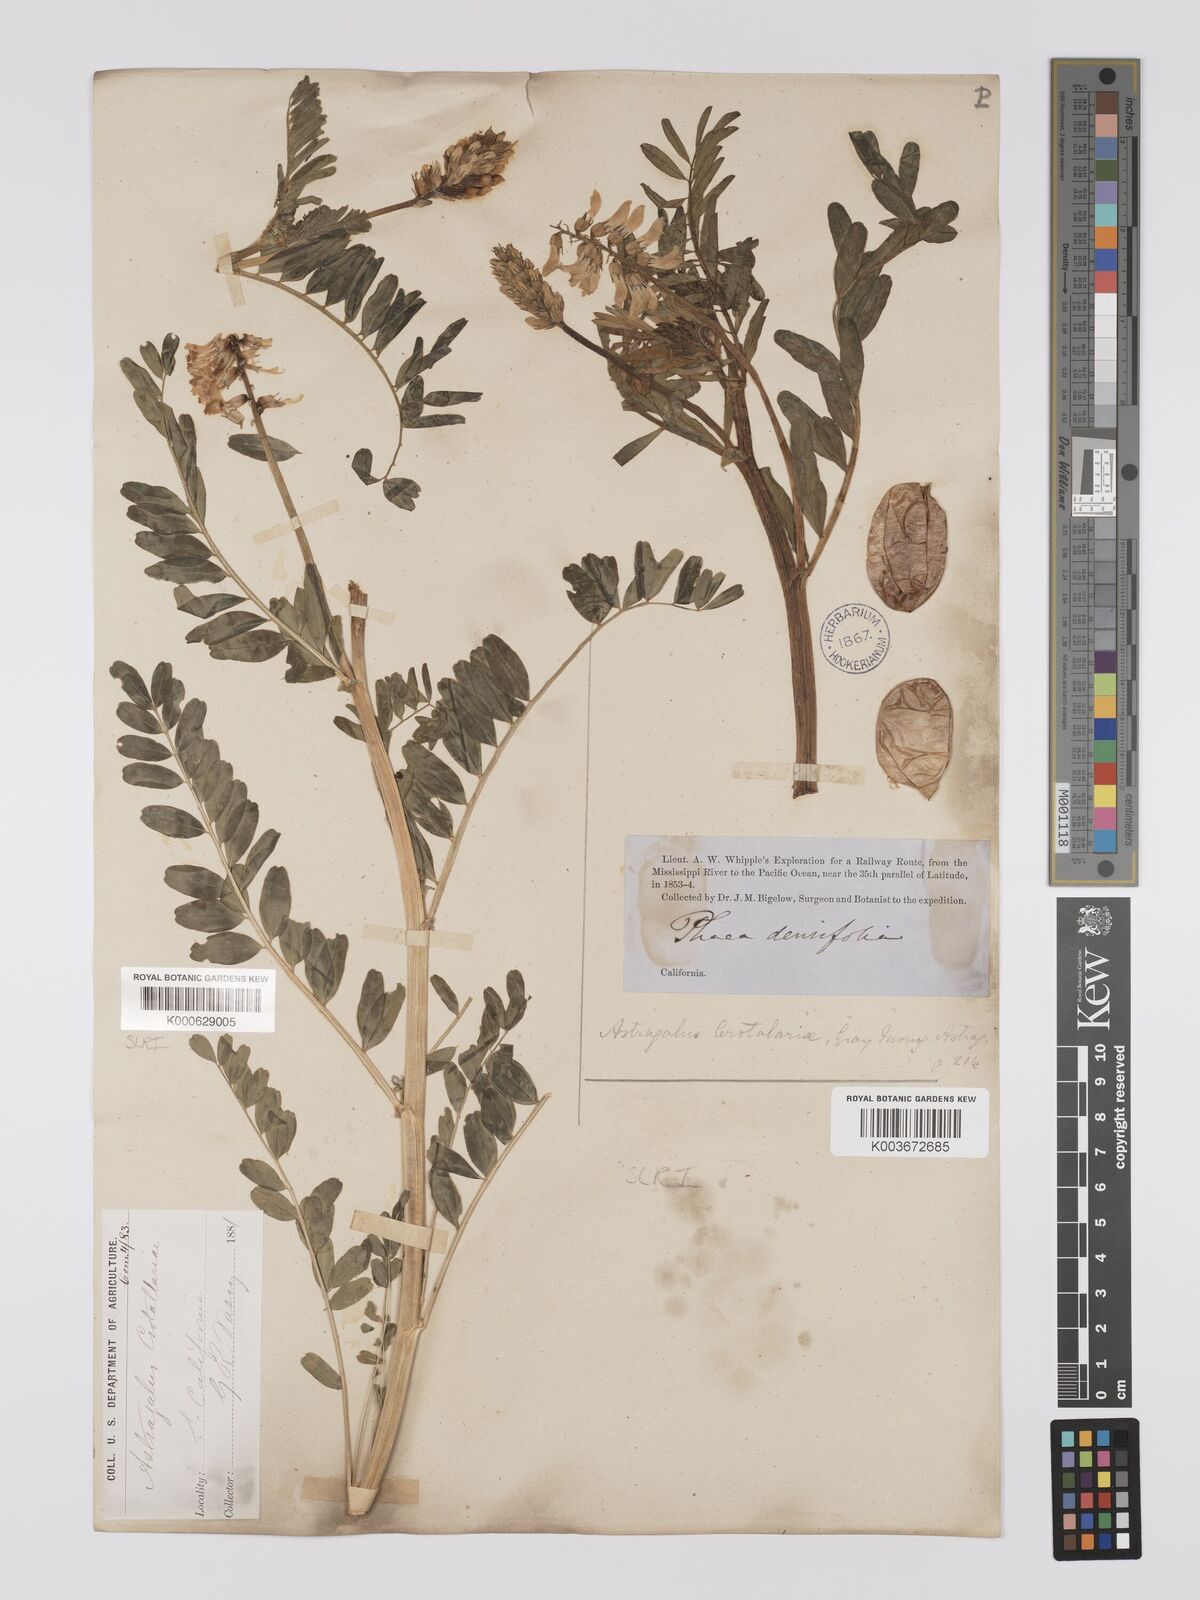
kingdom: Plantae
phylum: Tracheophyta
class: Magnoliopsida
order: Fabales
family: Fabaceae
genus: Astragalus
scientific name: Astragalus crotalariae
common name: Salton milkvetch
